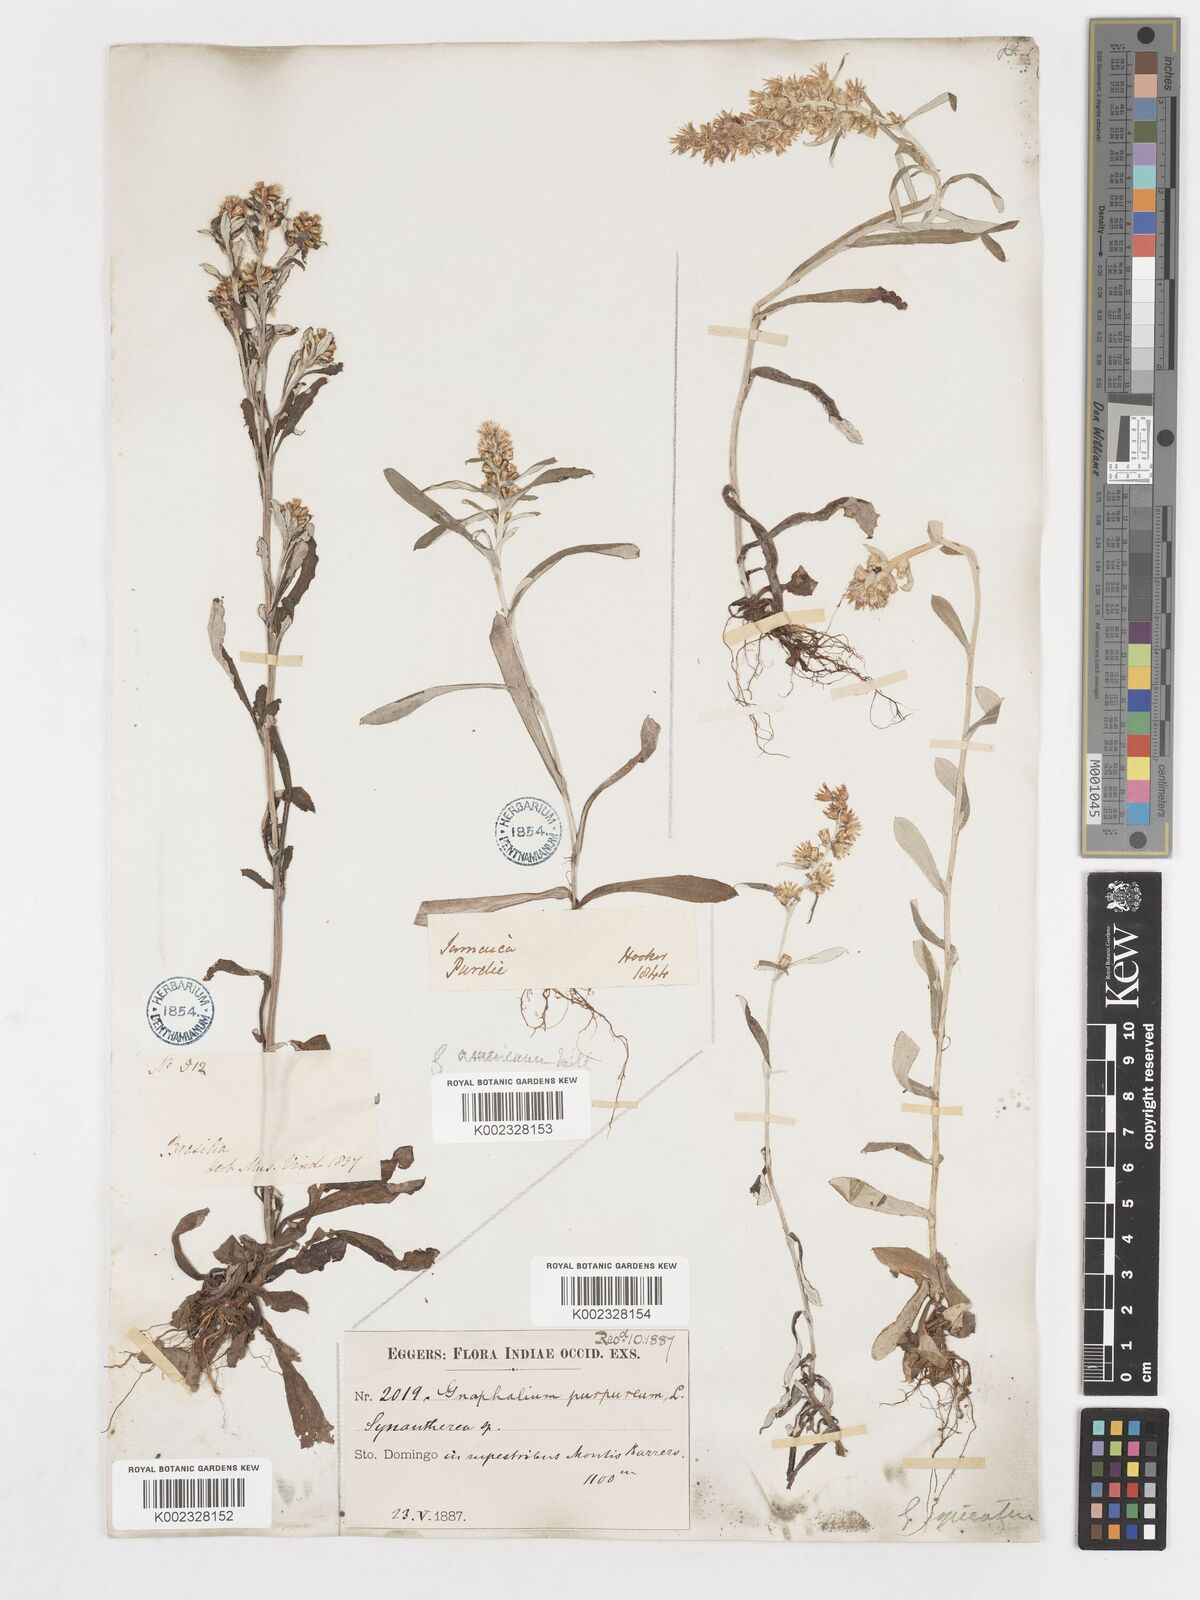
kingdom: Plantae
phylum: Tracheophyta
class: Magnoliopsida
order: Asterales
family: Asteraceae
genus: Gamochaeta
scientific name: Gamochaeta purpurea
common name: Purple cudweed
